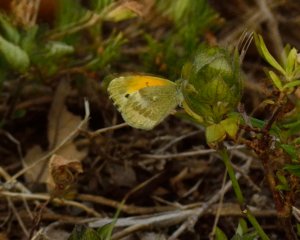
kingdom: Animalia
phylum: Arthropoda
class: Insecta
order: Lepidoptera
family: Pieridae
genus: Nathalis
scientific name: Nathalis iole
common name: Dainty Sulphur
